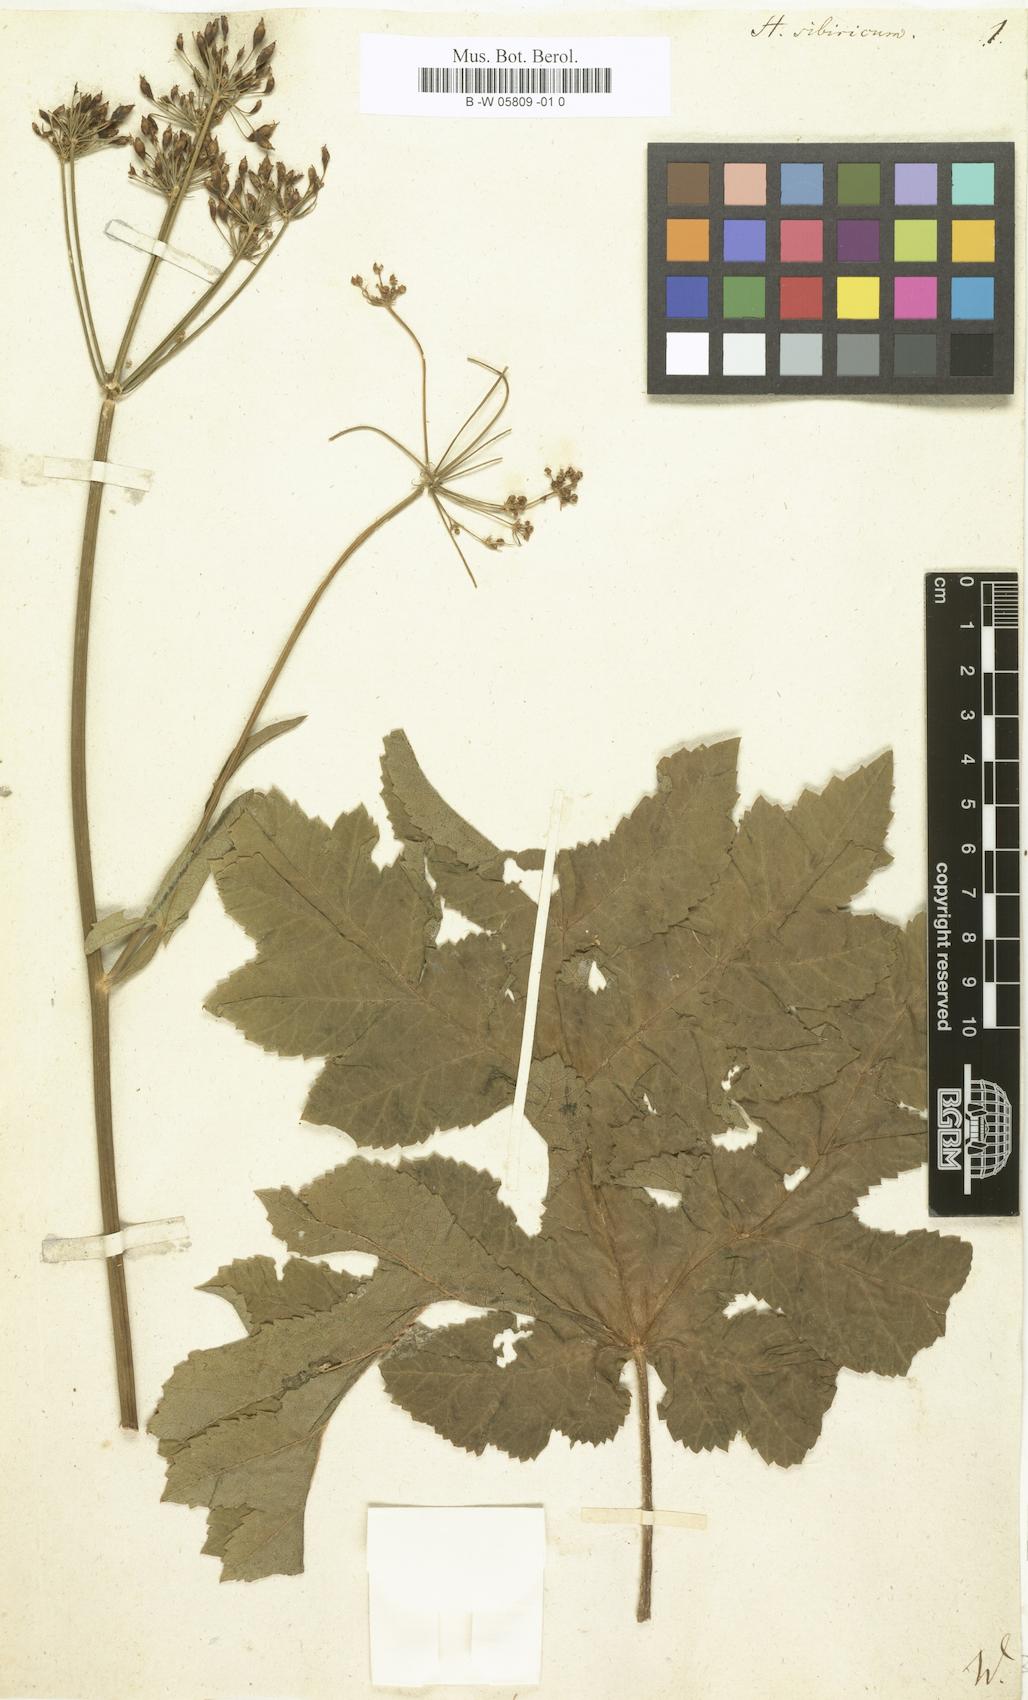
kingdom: Plantae
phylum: Tracheophyta
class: Magnoliopsida
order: Apiales
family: Apiaceae
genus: Heracleum
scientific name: Heracleum sphondylium
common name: Hogweed
